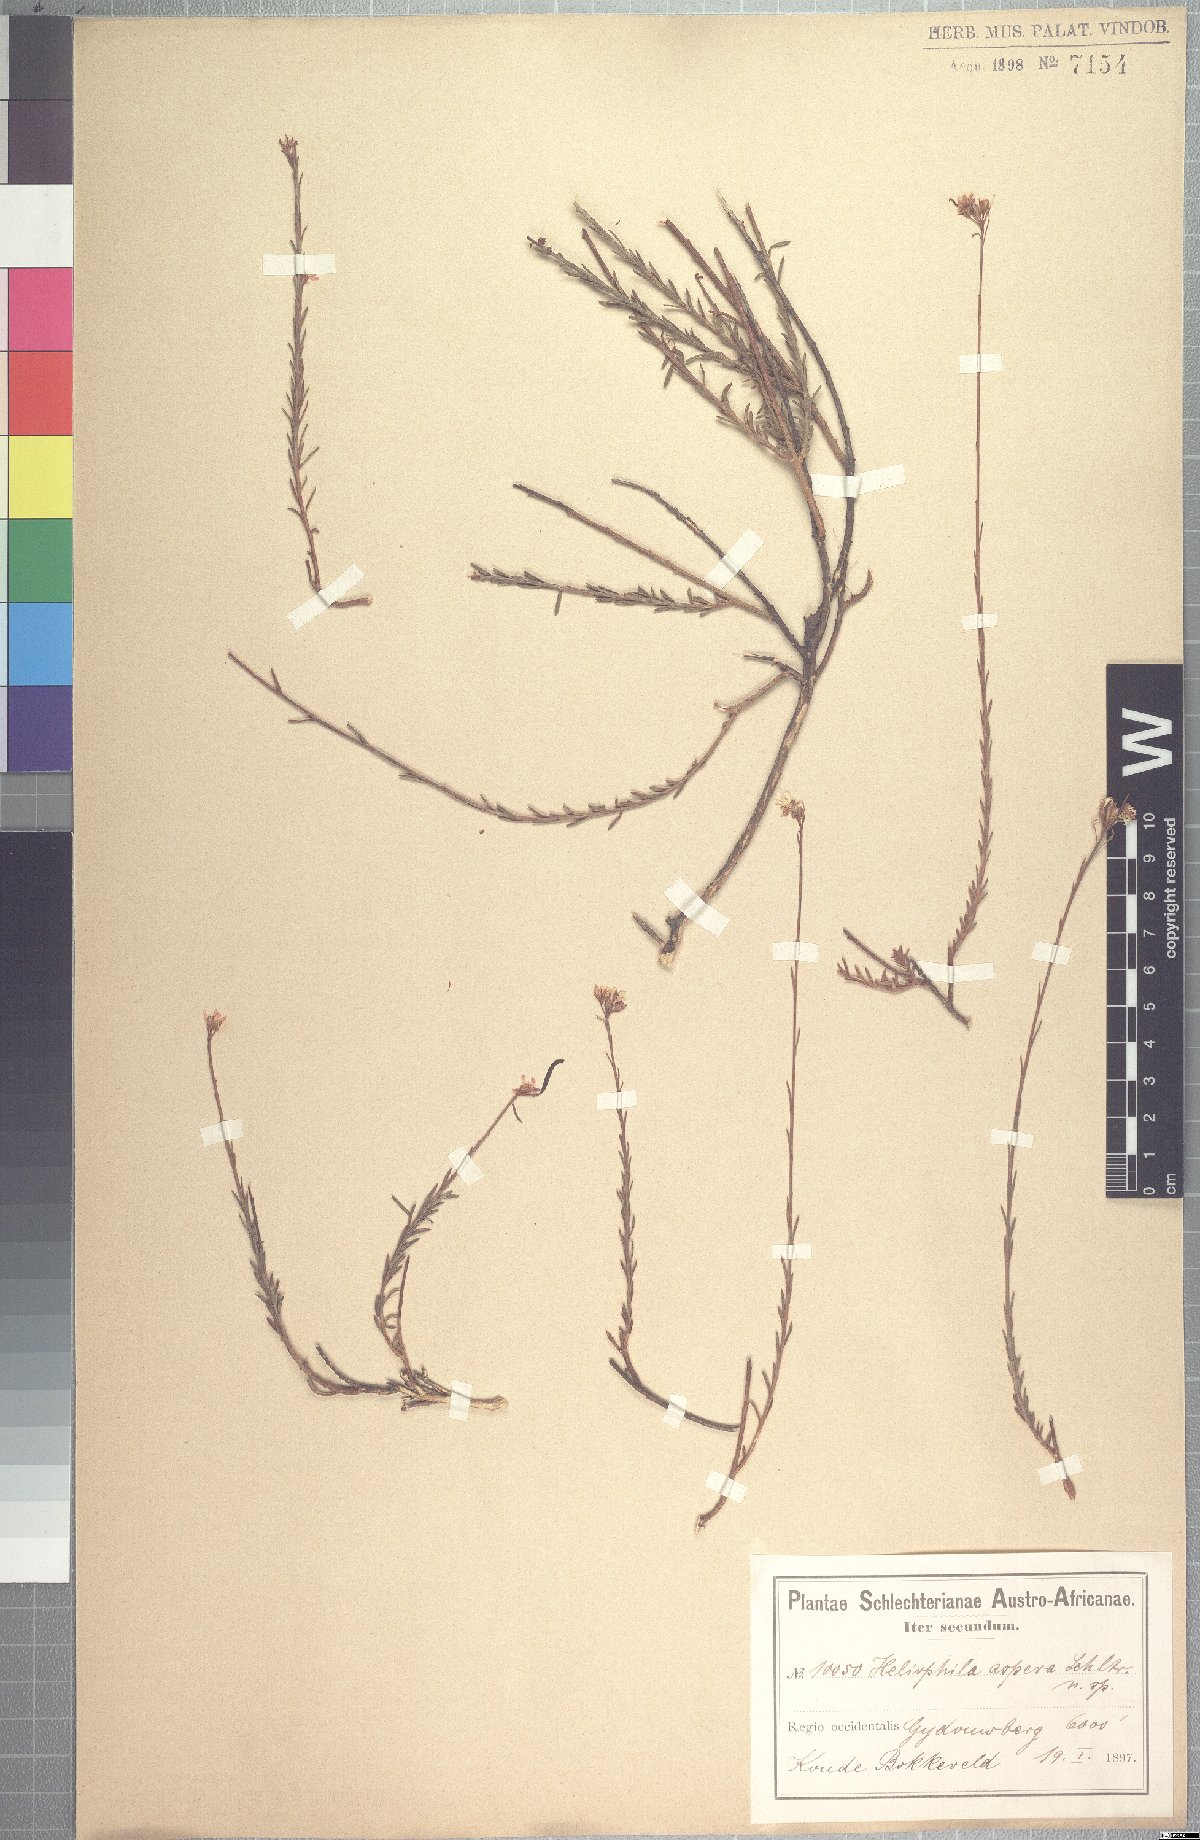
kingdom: Plantae
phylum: Tracheophyta
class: Magnoliopsida
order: Brassicales
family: Brassicaceae
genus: Heliophila
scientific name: Heliophila scoparia
